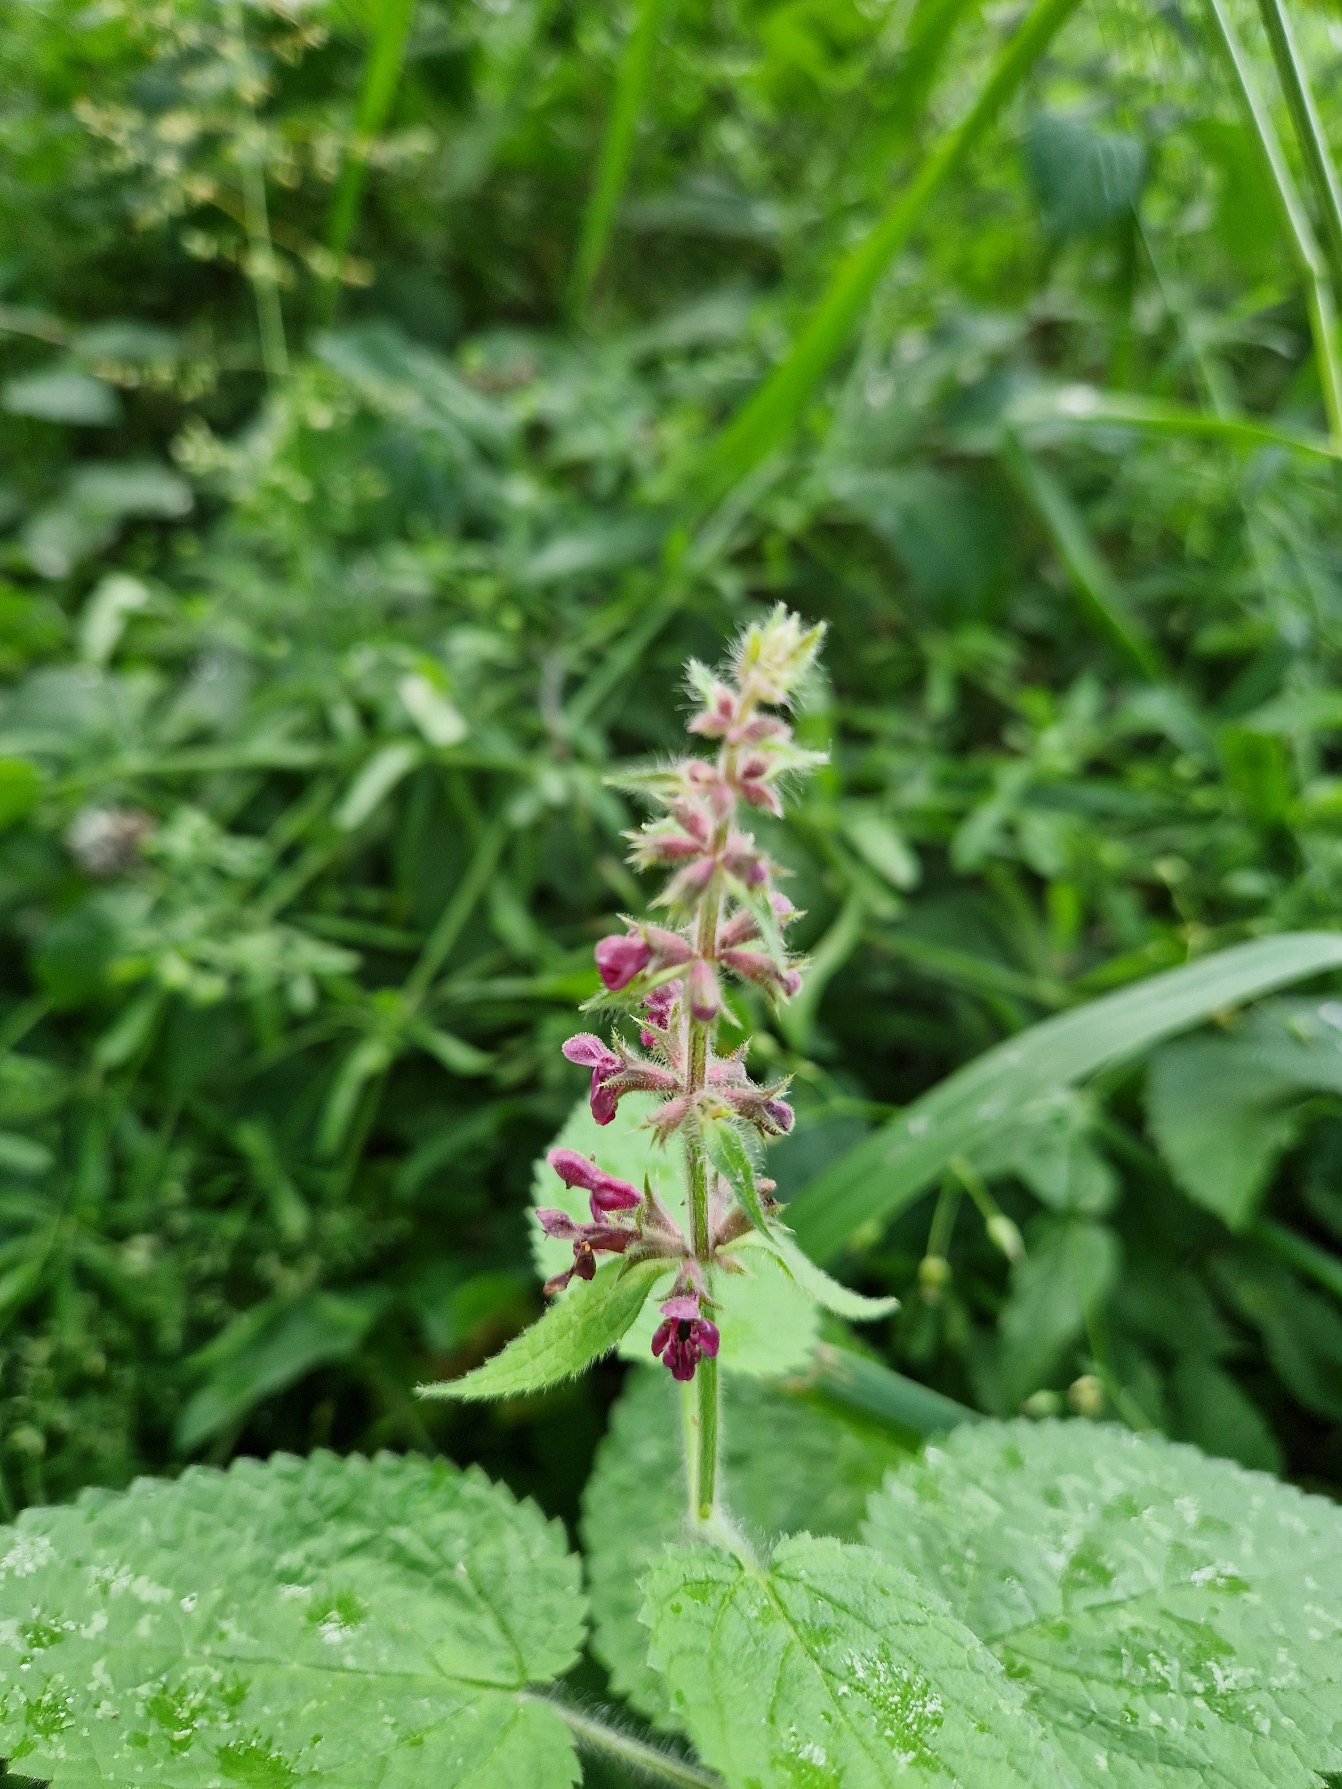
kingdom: Plantae
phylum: Tracheophyta
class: Magnoliopsida
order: Lamiales
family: Lamiaceae
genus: Stachys
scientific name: Stachys sylvatica
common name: Skov-galtetand
